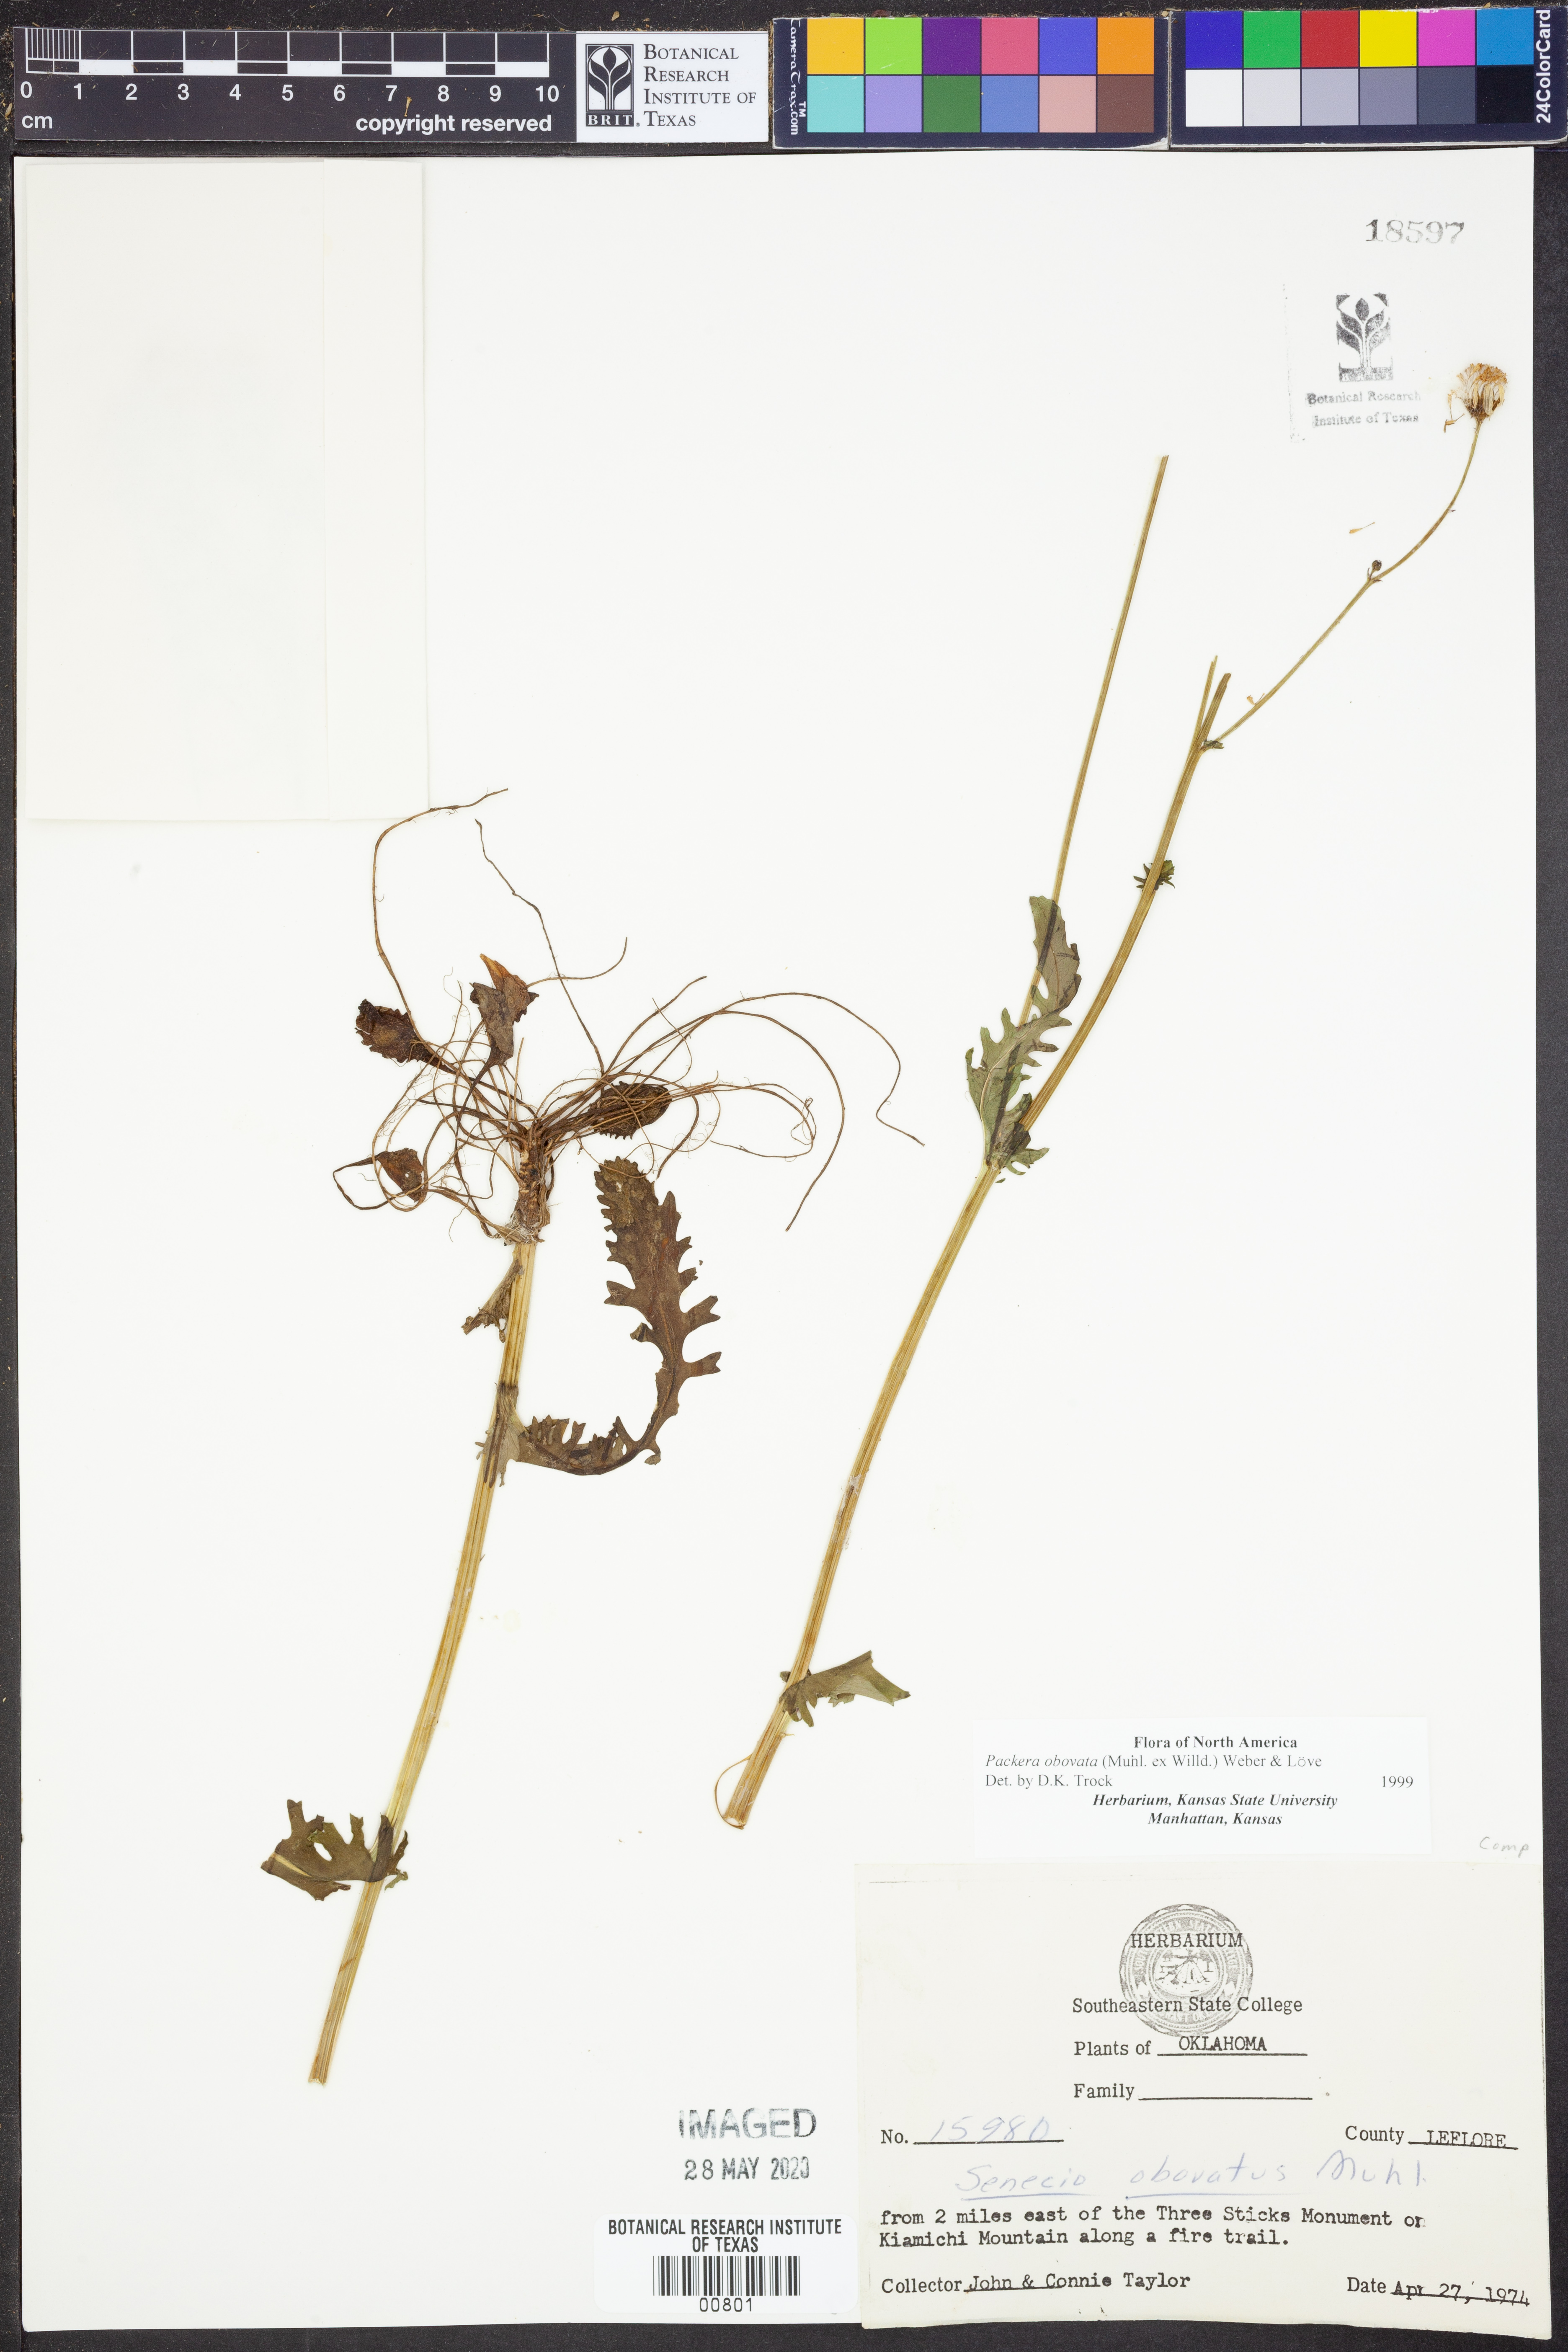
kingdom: Plantae
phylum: Tracheophyta
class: Magnoliopsida
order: Asterales
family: Asteraceae
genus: Packera
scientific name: Packera obovata
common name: Round-leaf ragwort
